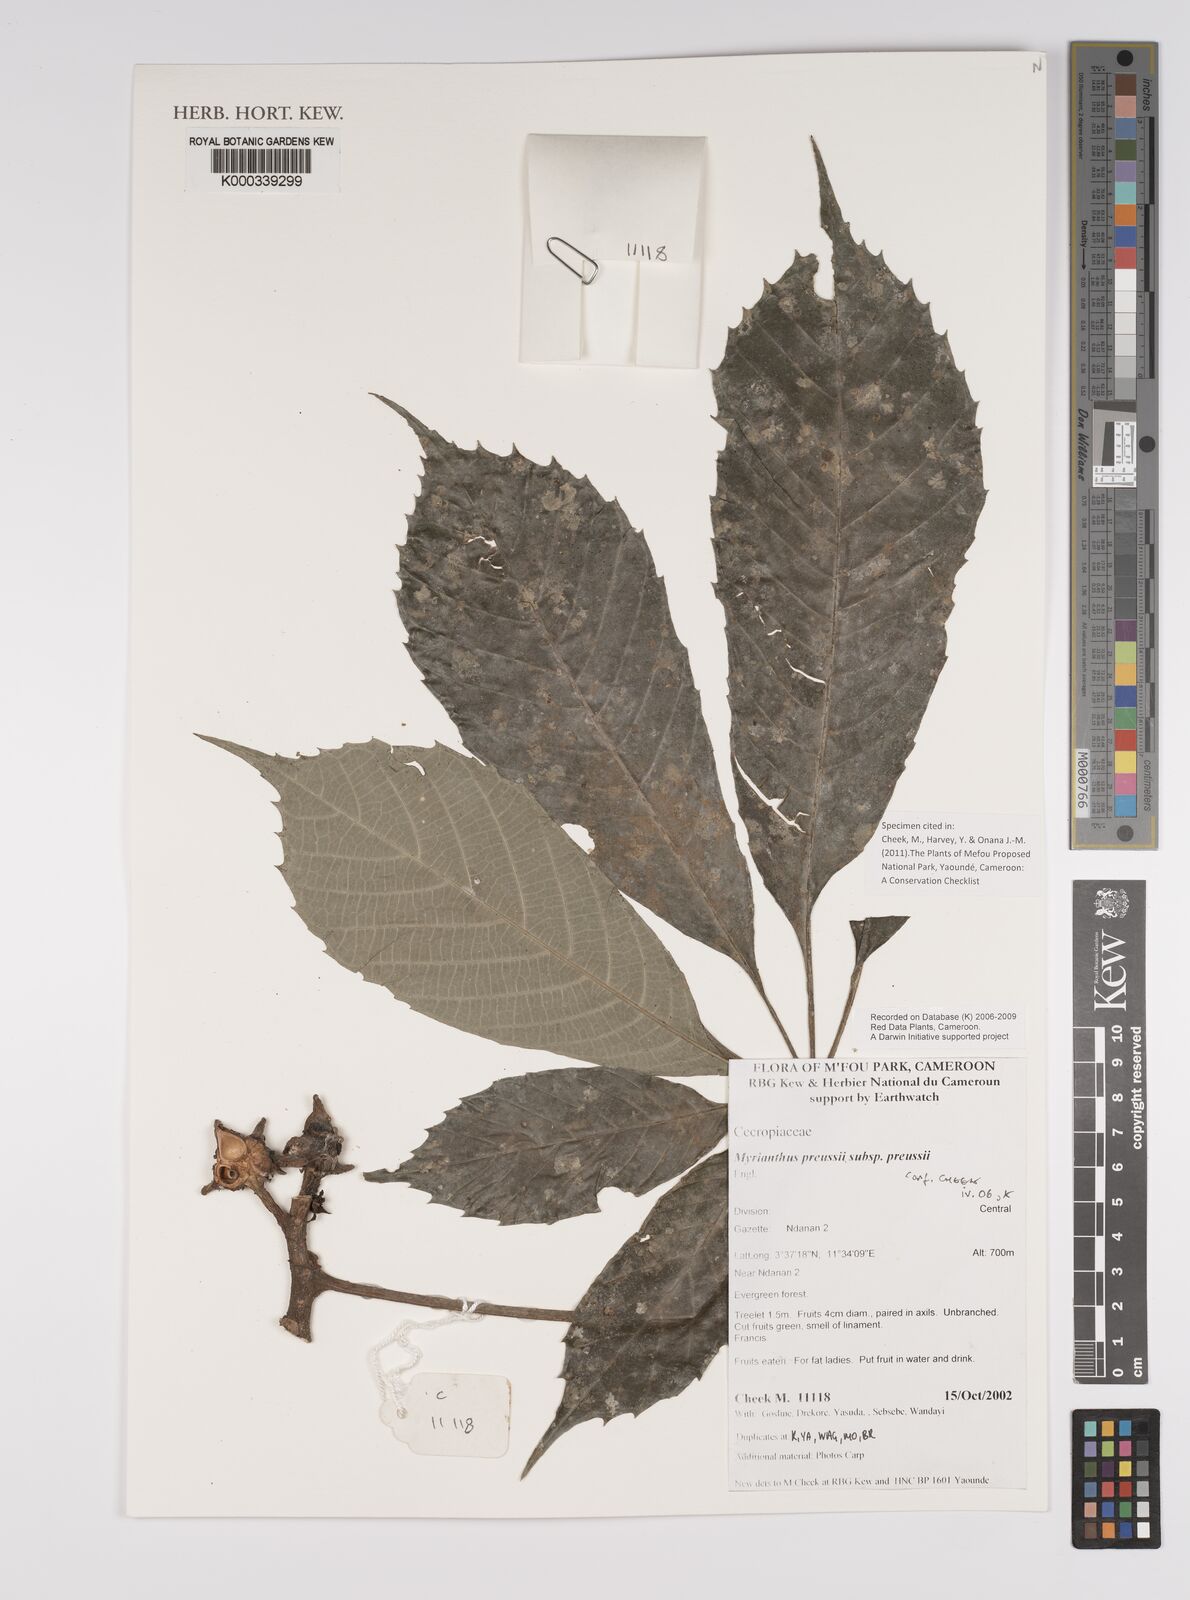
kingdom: Plantae
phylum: Tracheophyta
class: Magnoliopsida
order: Rosales
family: Urticaceae
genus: Myrianthus
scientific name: Myrianthus preussii
